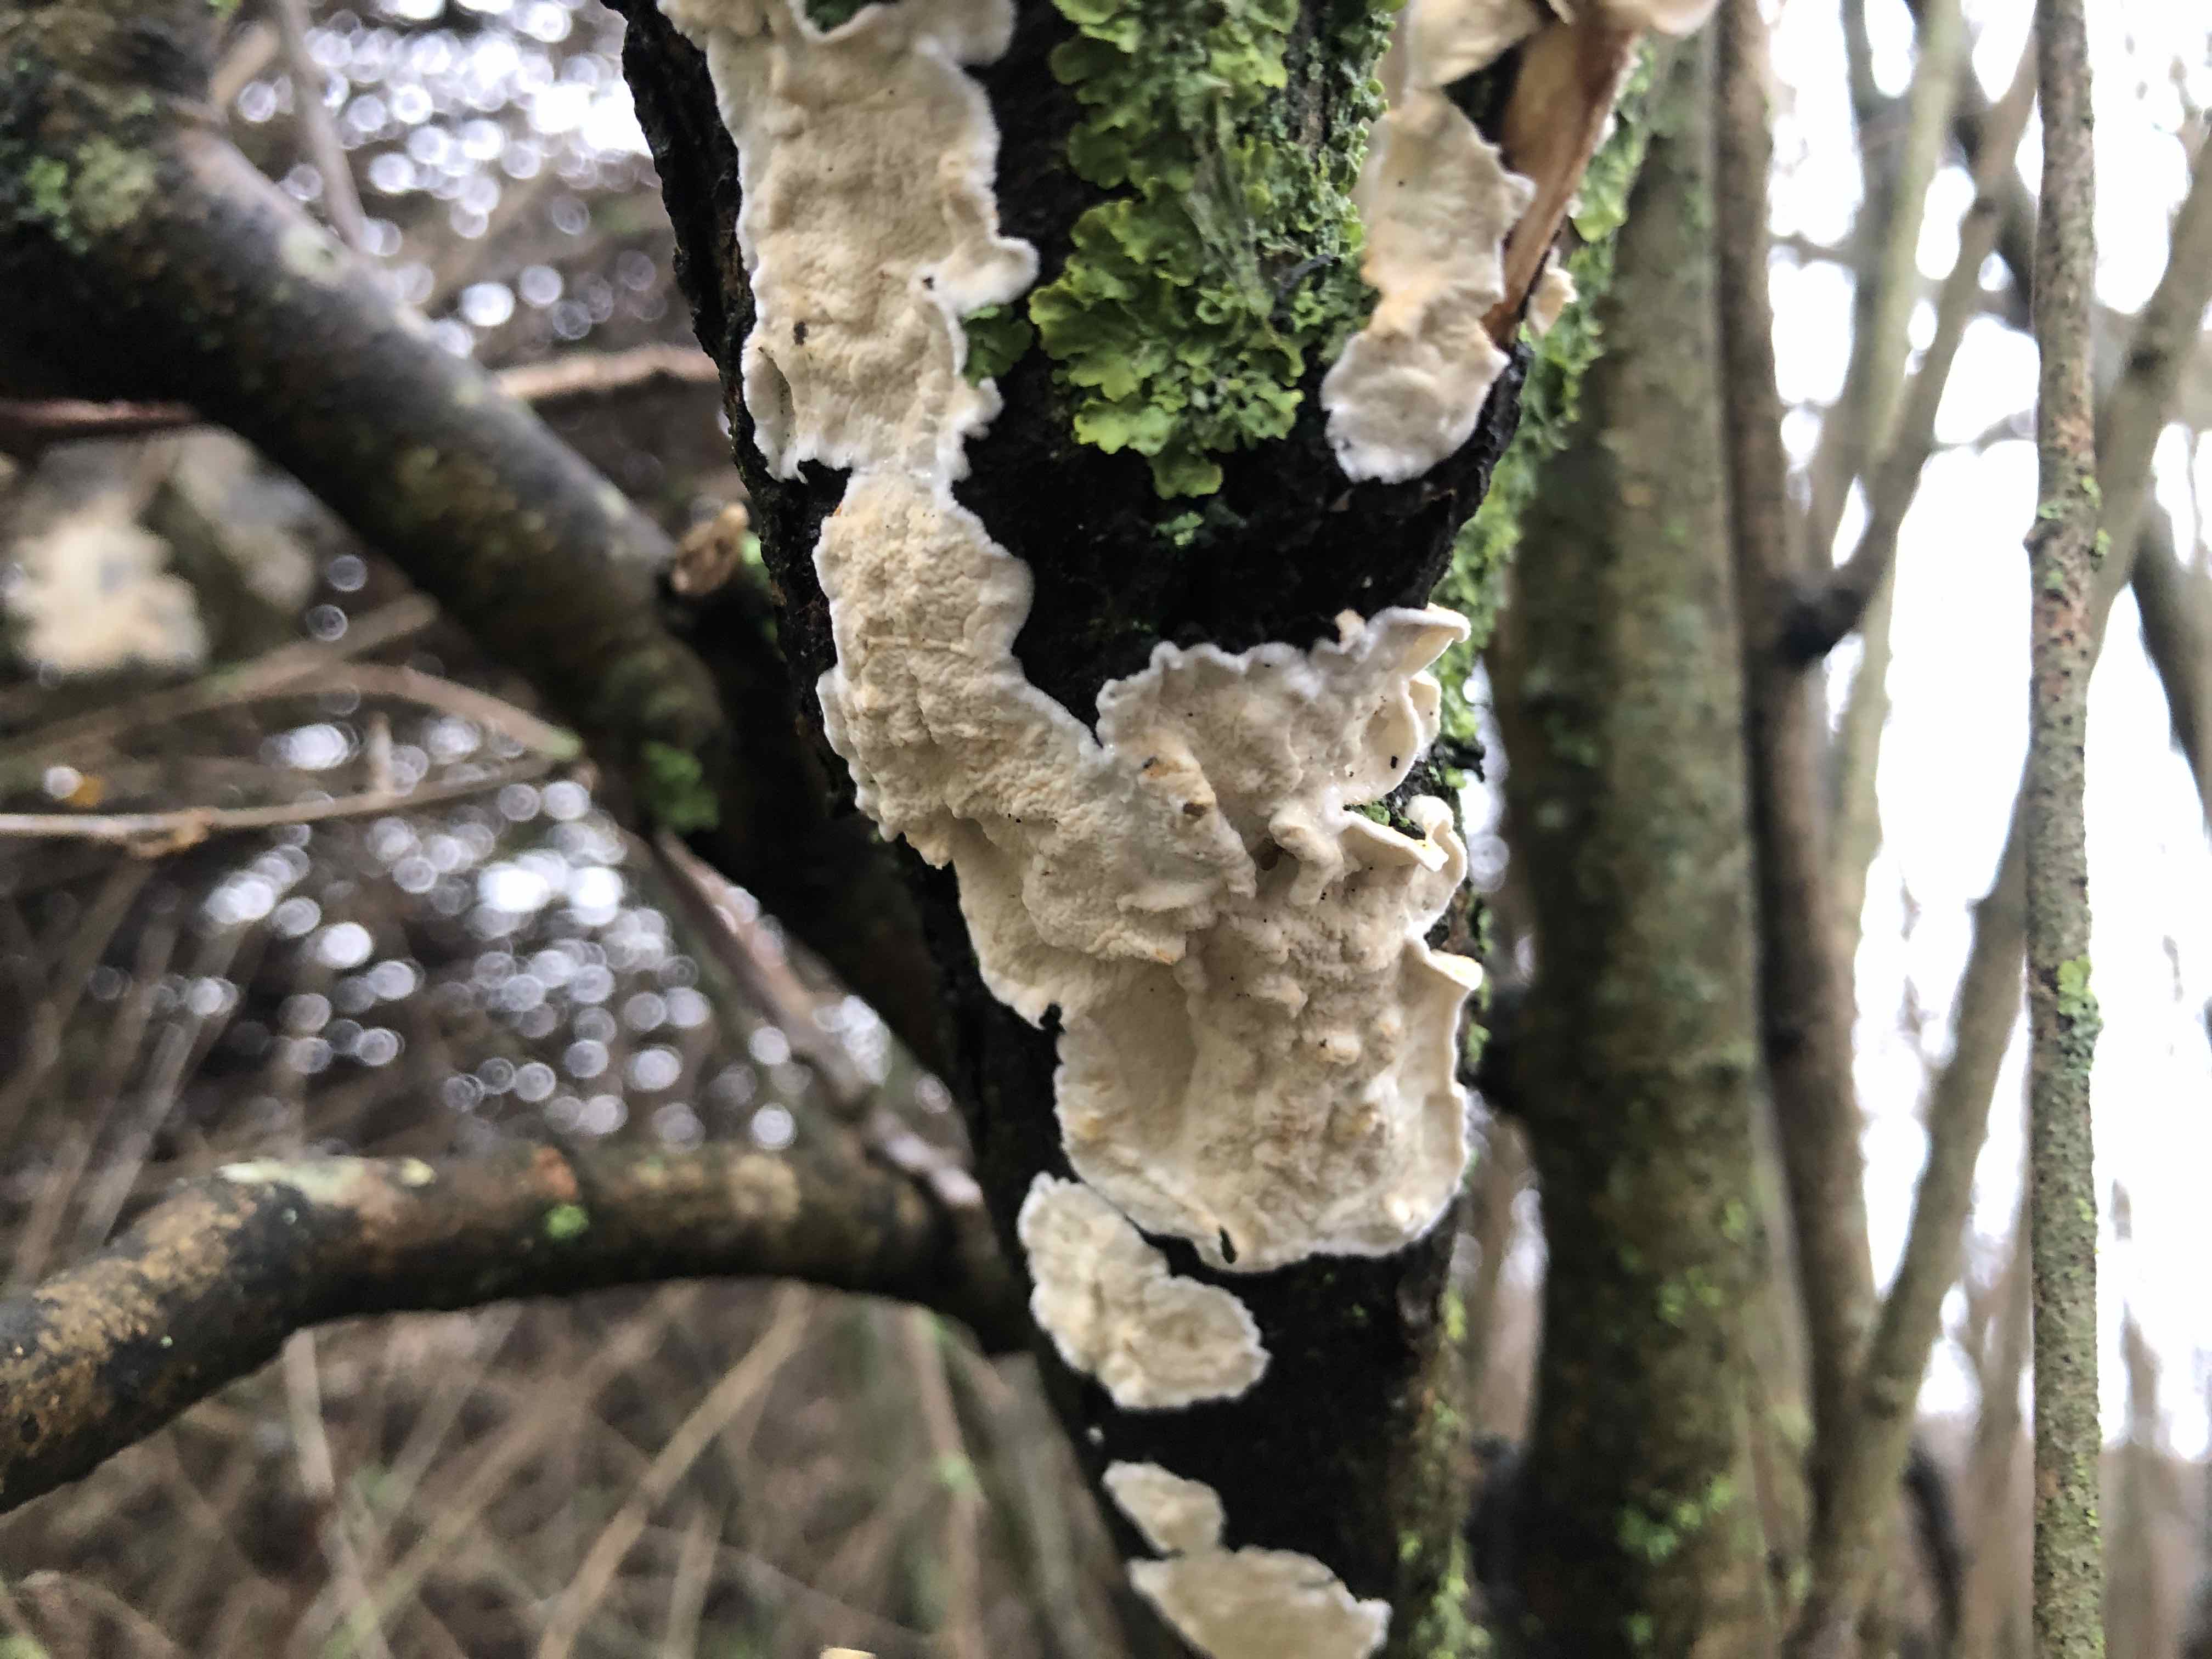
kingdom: Fungi
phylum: Basidiomycota
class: Agaricomycetes
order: Polyporales
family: Irpicaceae
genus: Byssomerulius
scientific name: Byssomerulius corium
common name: læder-åresvamp
